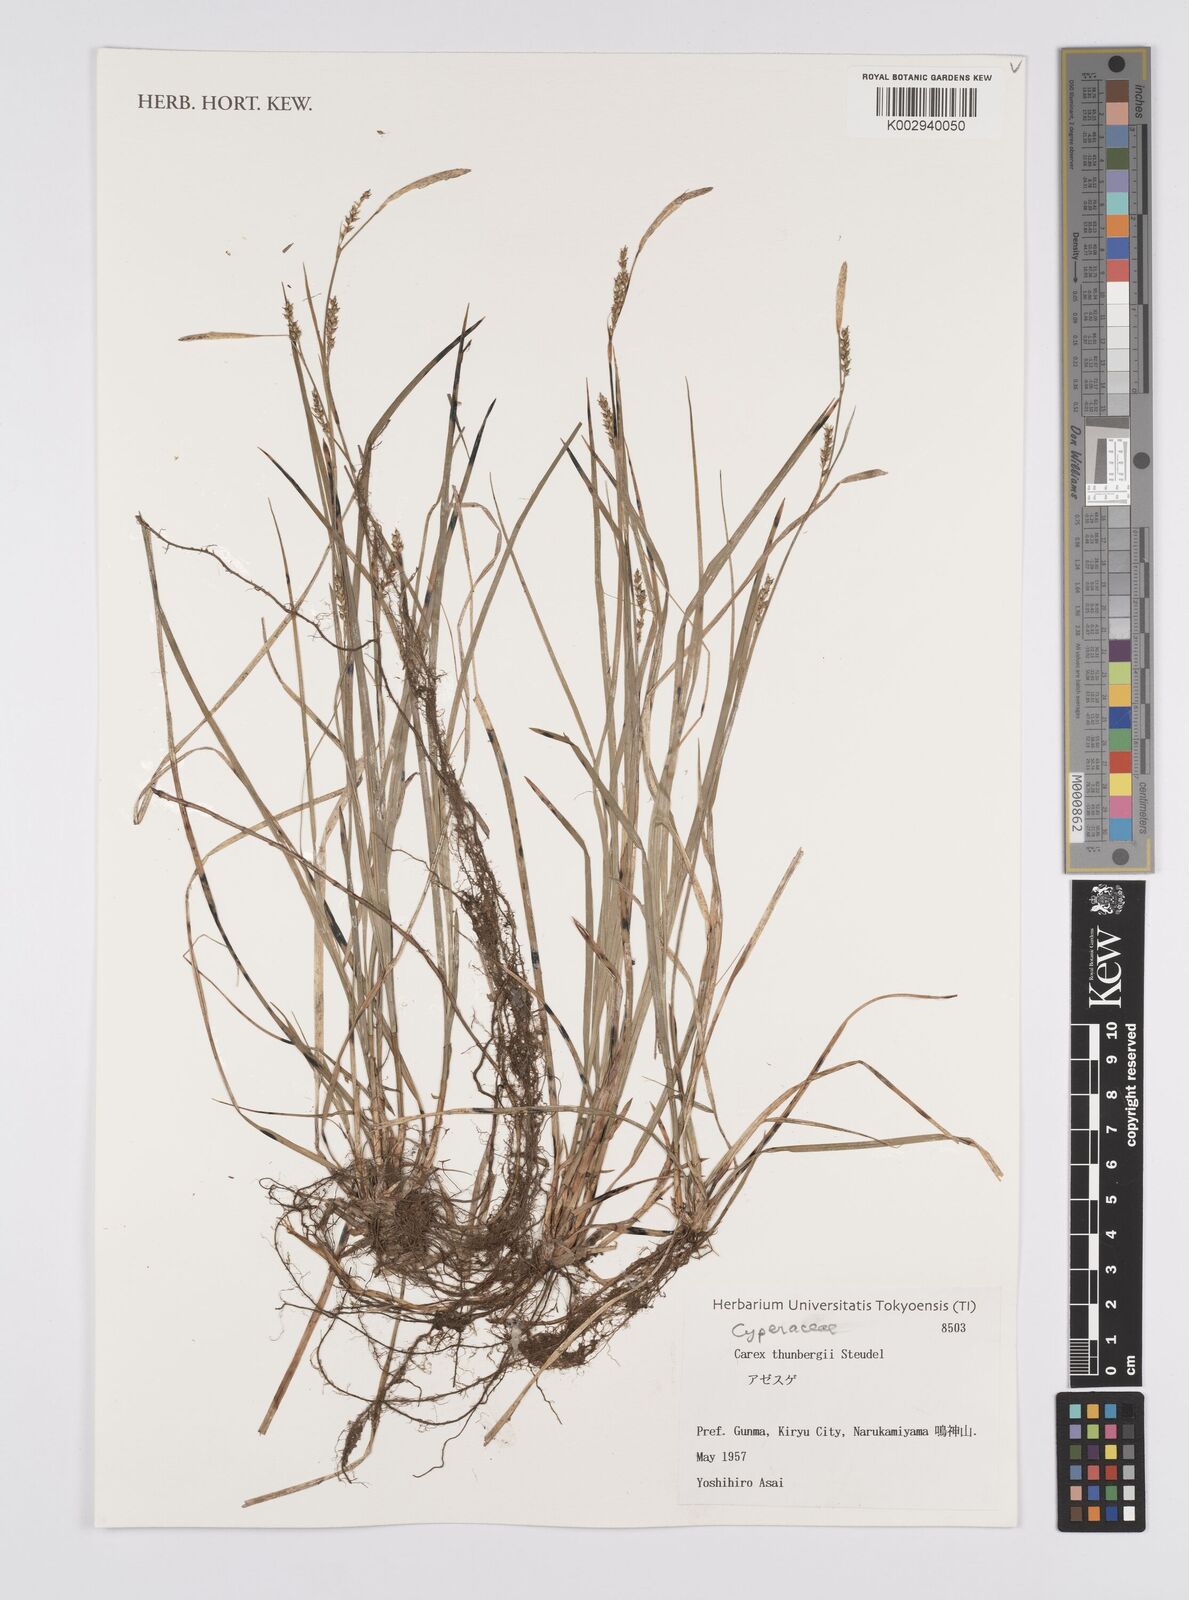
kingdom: Plantae
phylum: Tracheophyta
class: Liliopsida
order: Poales
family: Cyperaceae
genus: Carex
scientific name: Carex thunbergii
